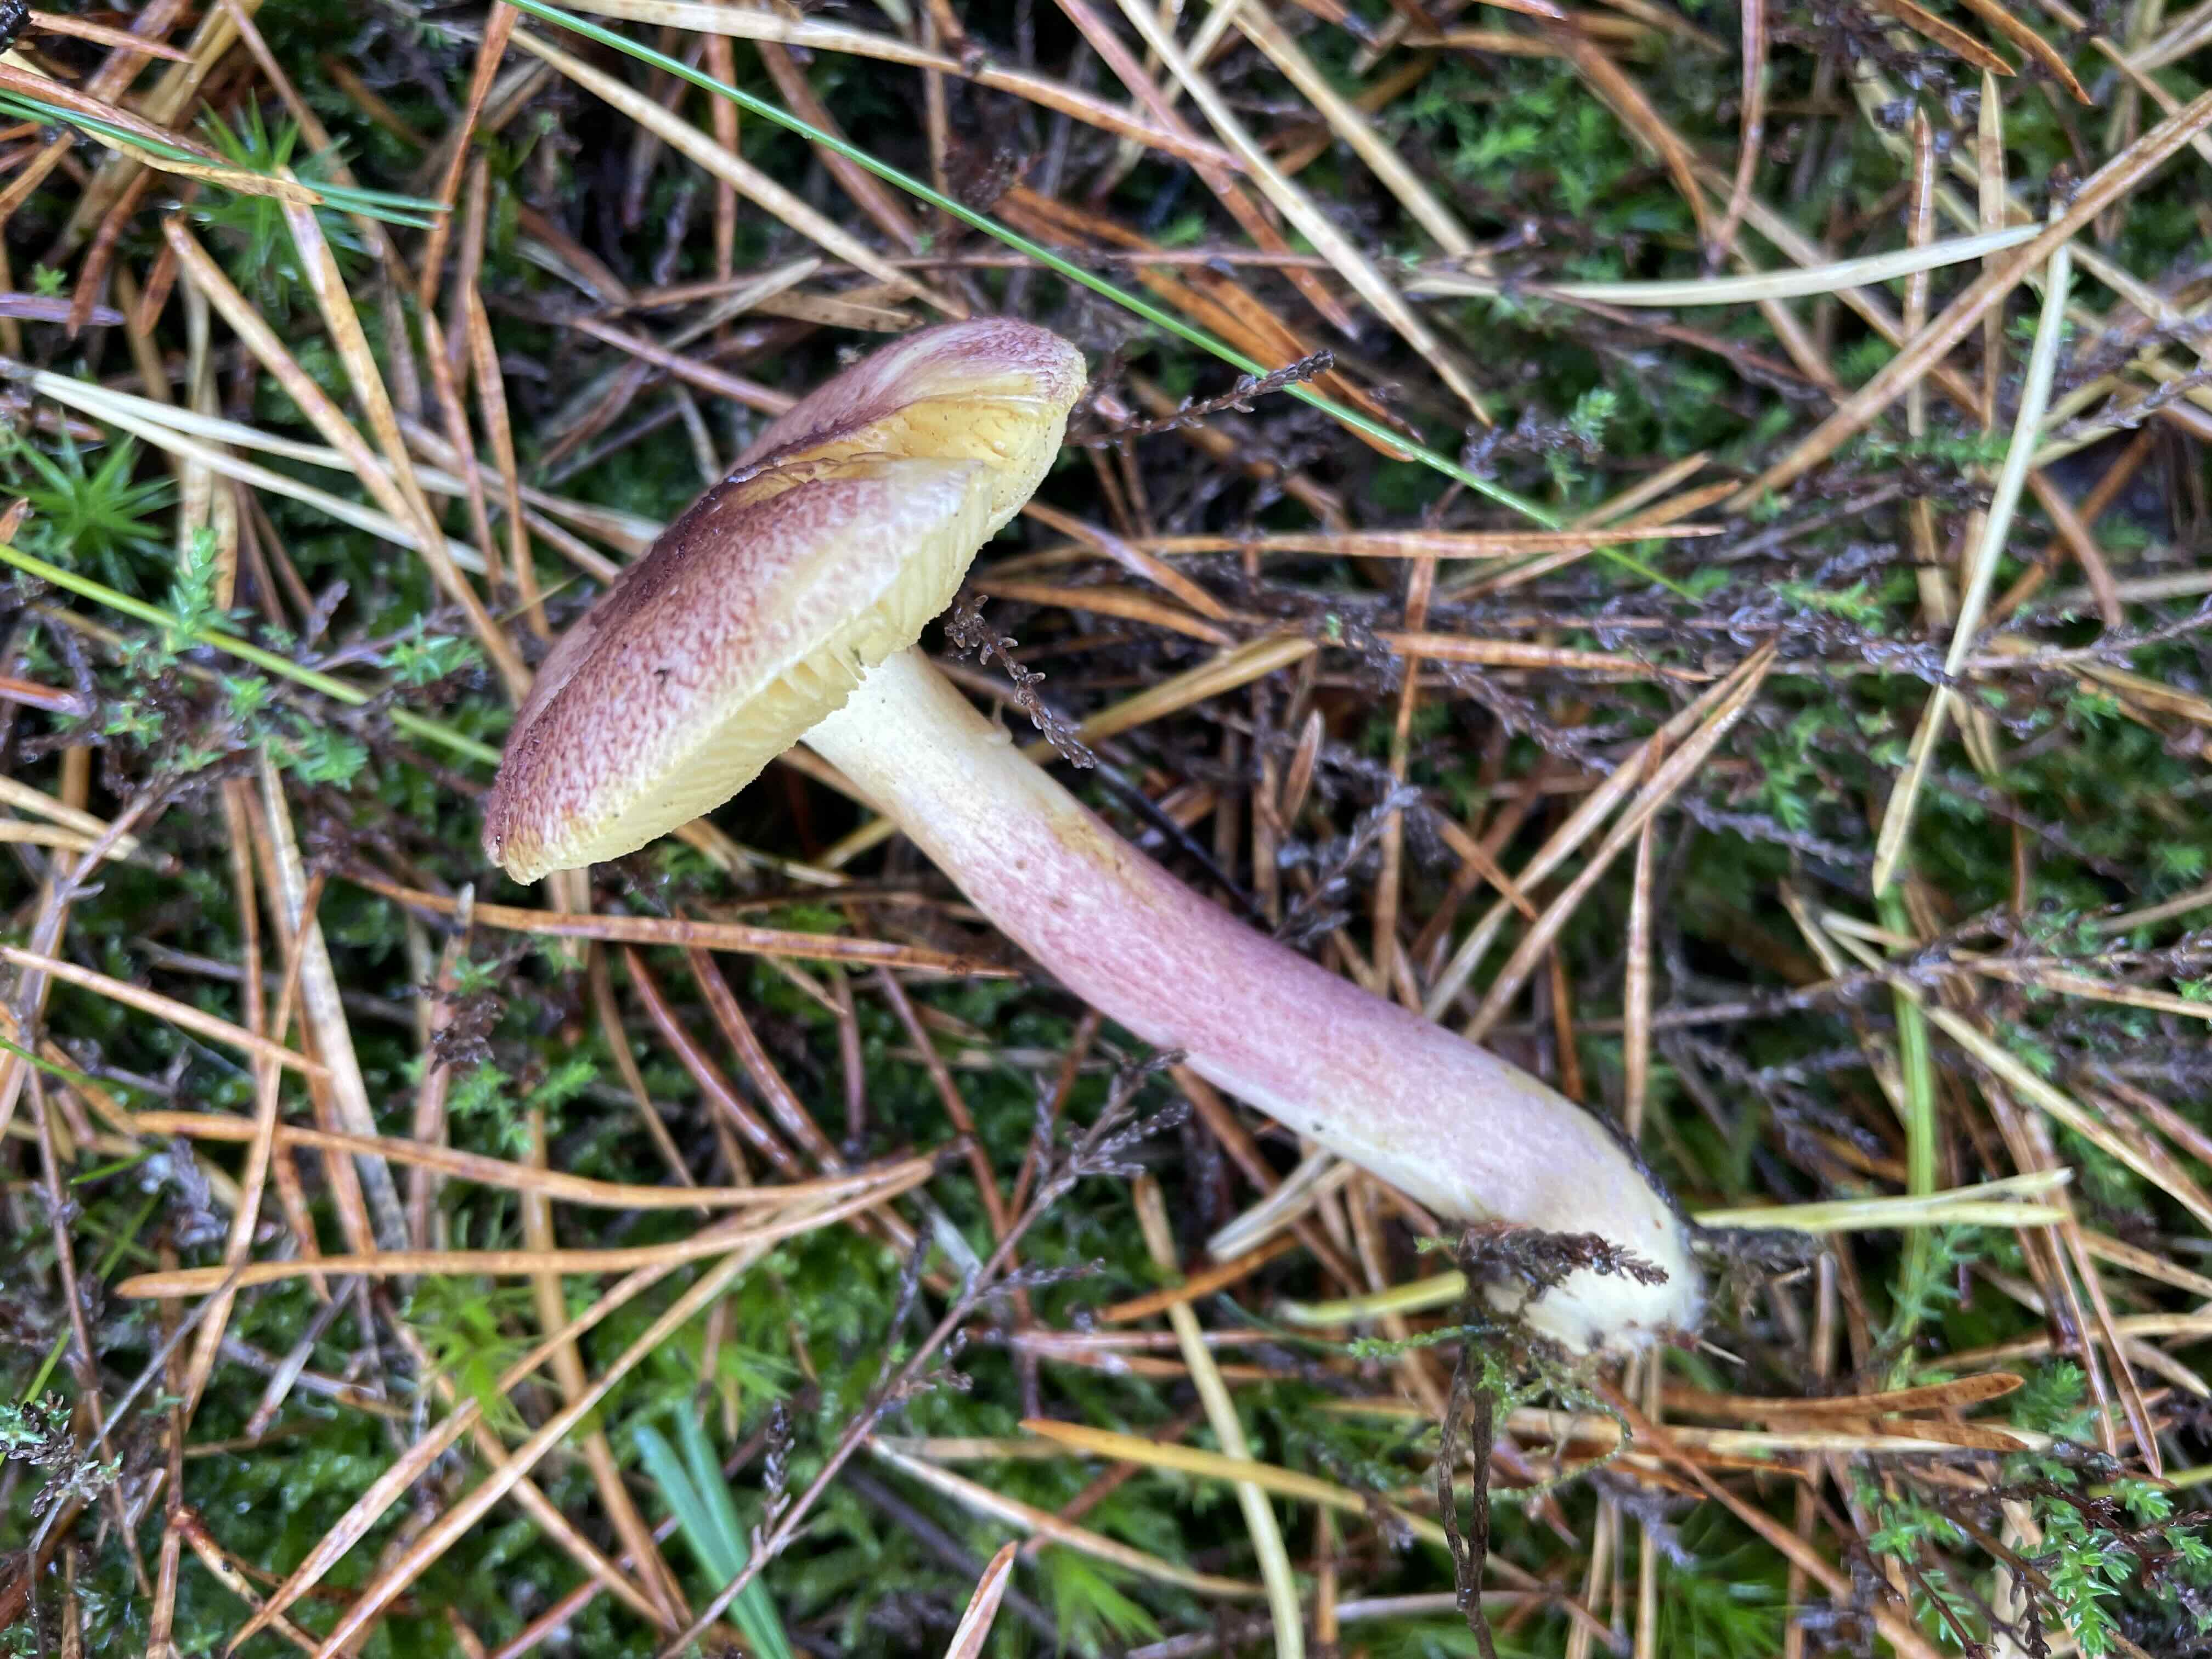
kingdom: Fungi
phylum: Basidiomycota
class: Agaricomycetes
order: Agaricales
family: Tricholomataceae
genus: Tricholomopsis
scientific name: Tricholomopsis rutilans
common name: purpur-væbnerhat
